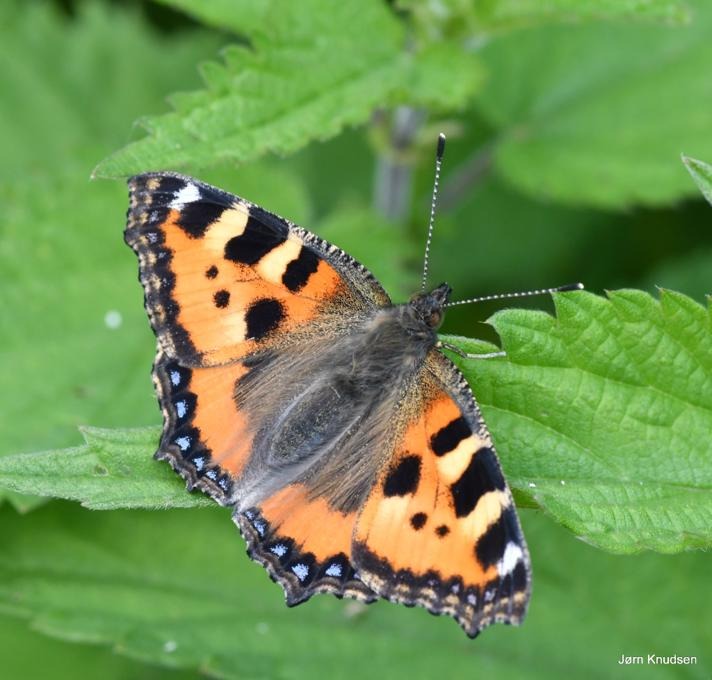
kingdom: Animalia
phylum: Arthropoda
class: Insecta
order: Lepidoptera
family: Nymphalidae
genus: Aglais
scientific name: Aglais urticae
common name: Nældens takvinge
